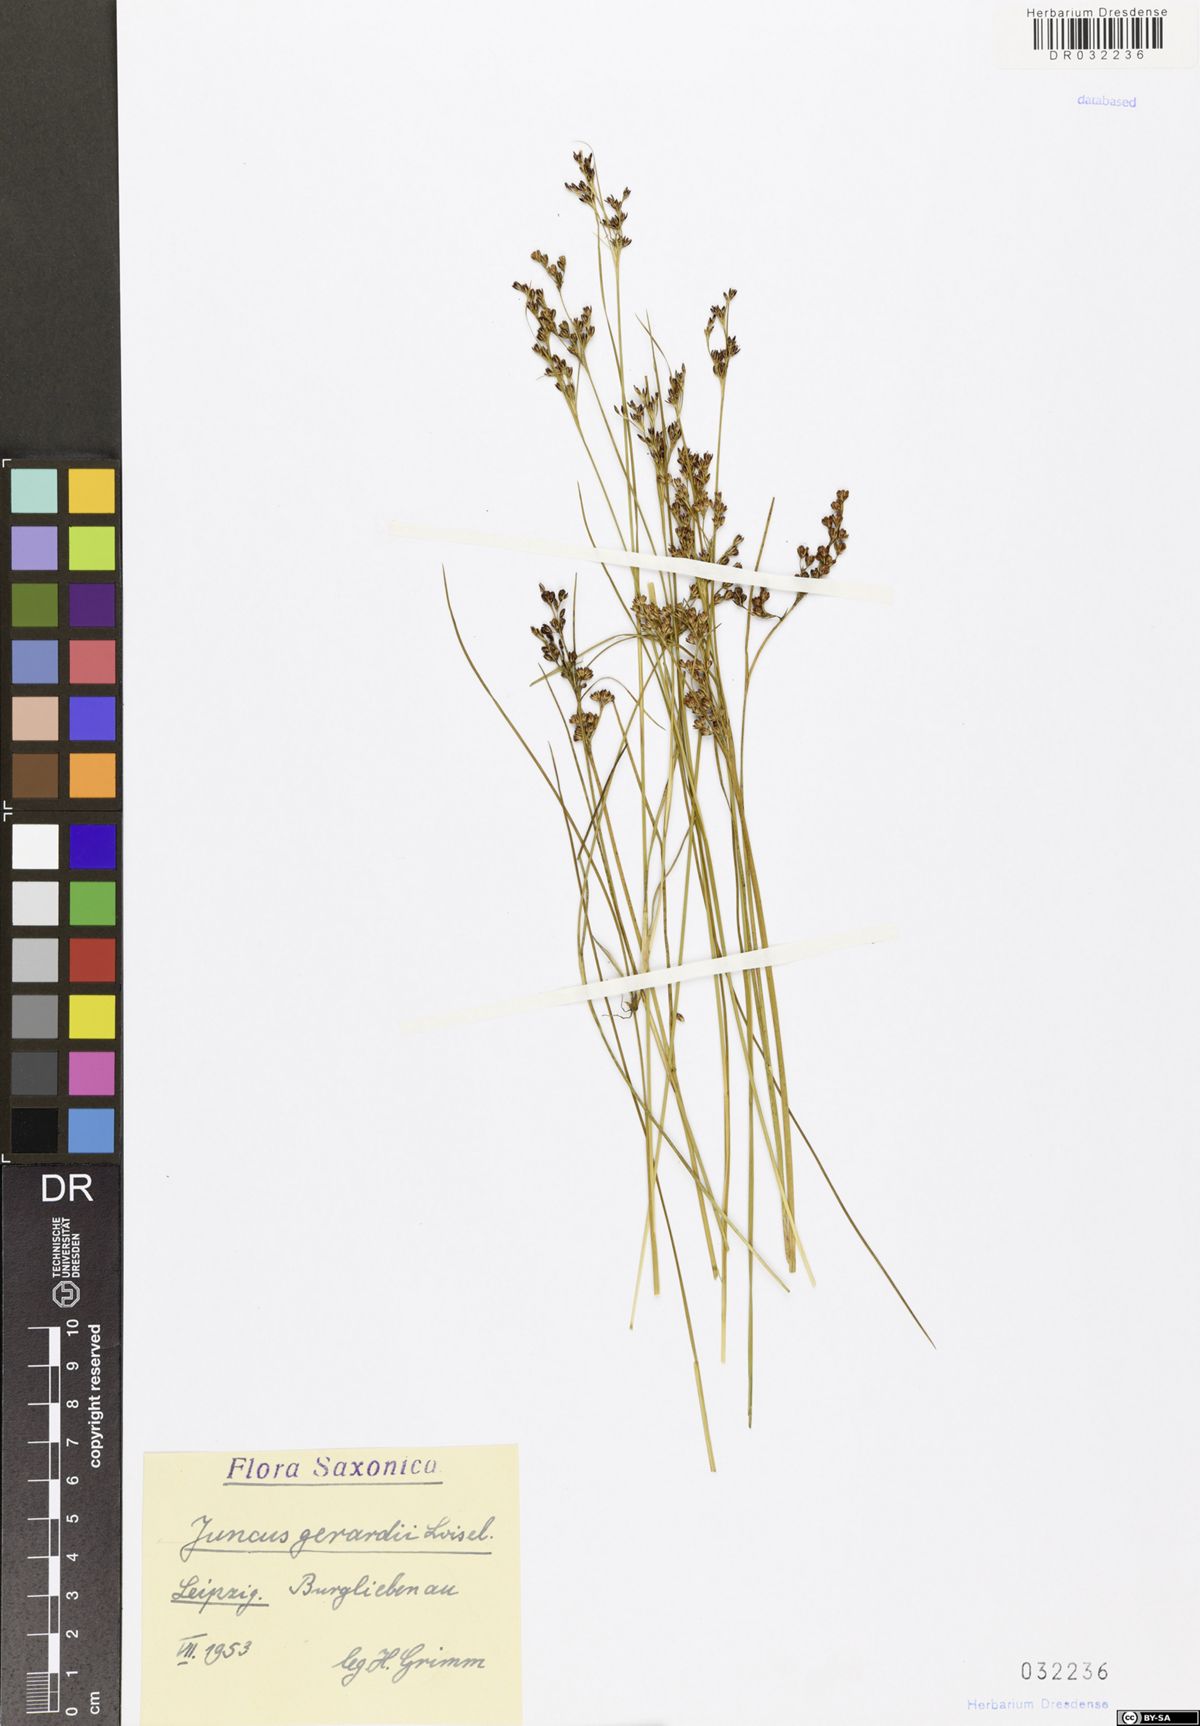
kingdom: Plantae
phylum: Tracheophyta
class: Liliopsida
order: Poales
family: Juncaceae
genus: Juncus
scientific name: Juncus gerardi
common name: Saltmarsh rush
